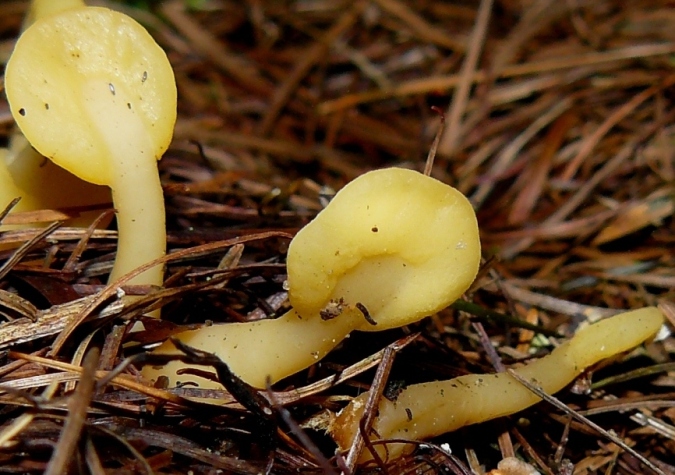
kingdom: Fungi
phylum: Ascomycota
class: Leotiomycetes
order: Rhytismatales
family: Cudoniaceae
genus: Spathularia
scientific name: Spathularia flavida
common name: gul spatelsvamp
